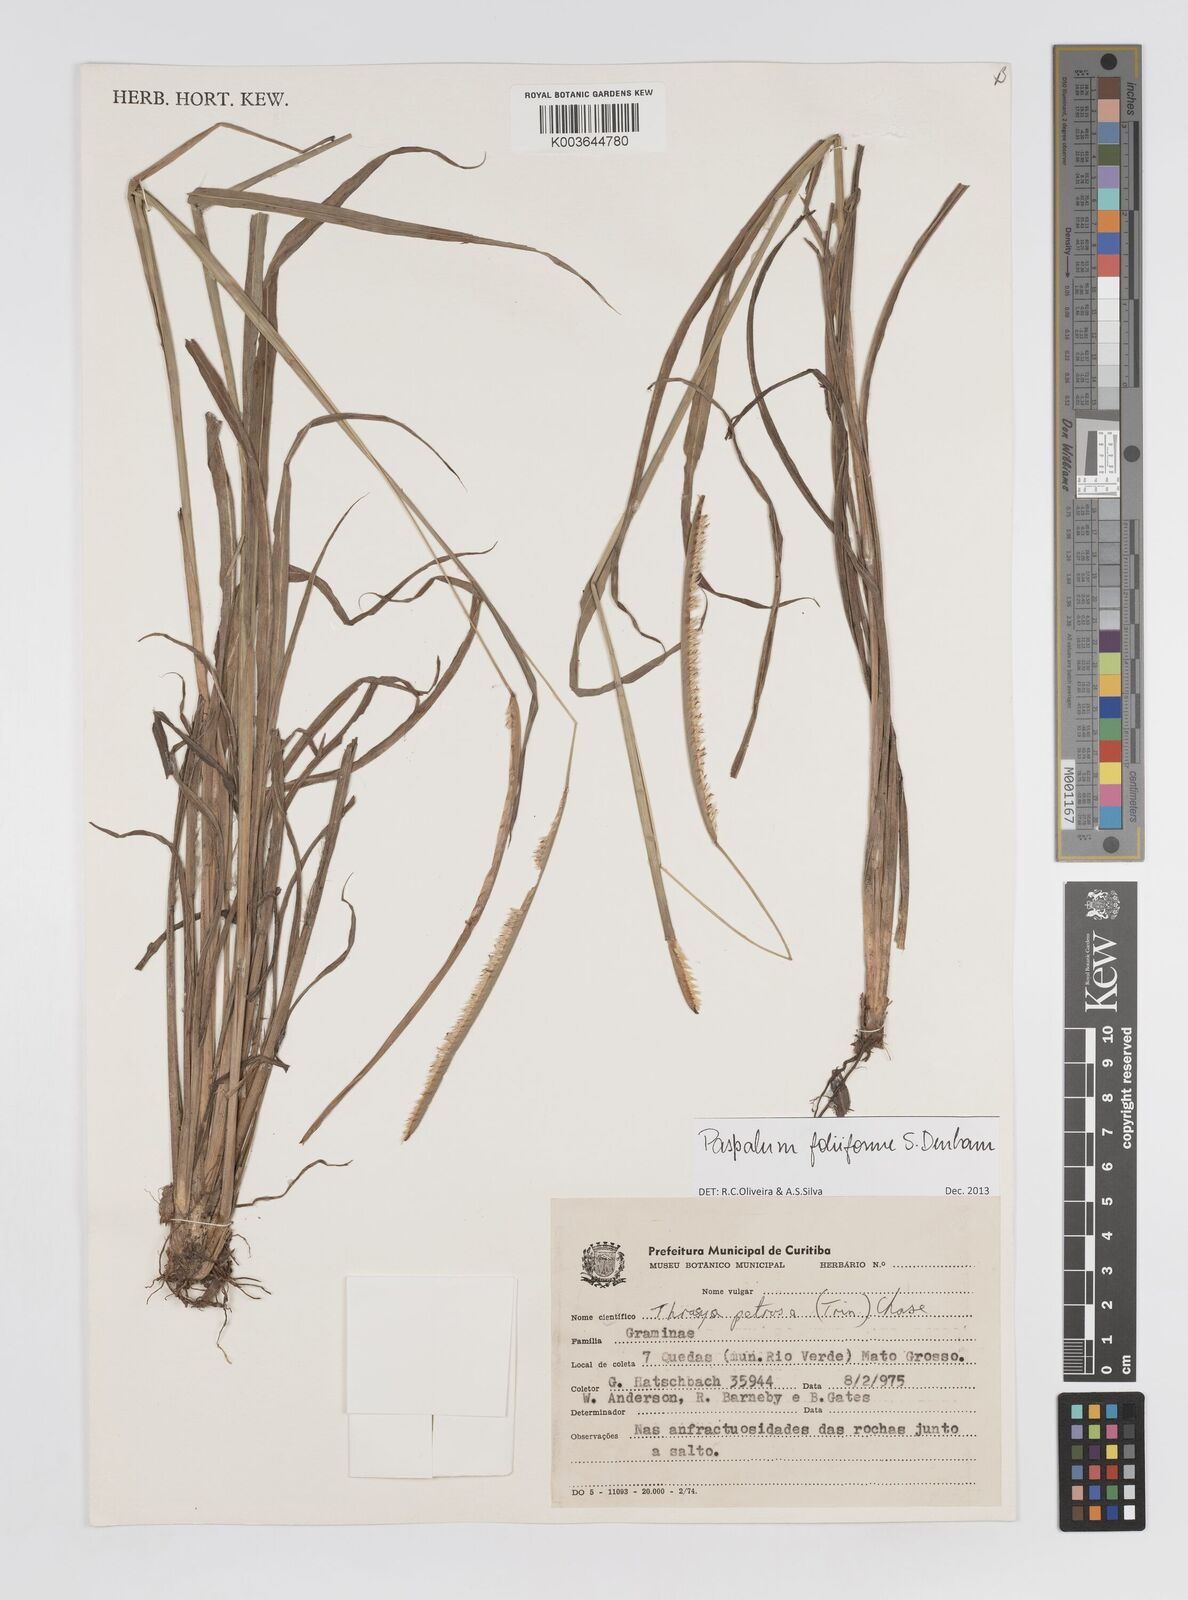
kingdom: Plantae
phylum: Tracheophyta
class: Liliopsida
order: Poales
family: Poaceae
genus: Paspalum
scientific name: Paspalum foliiforme
